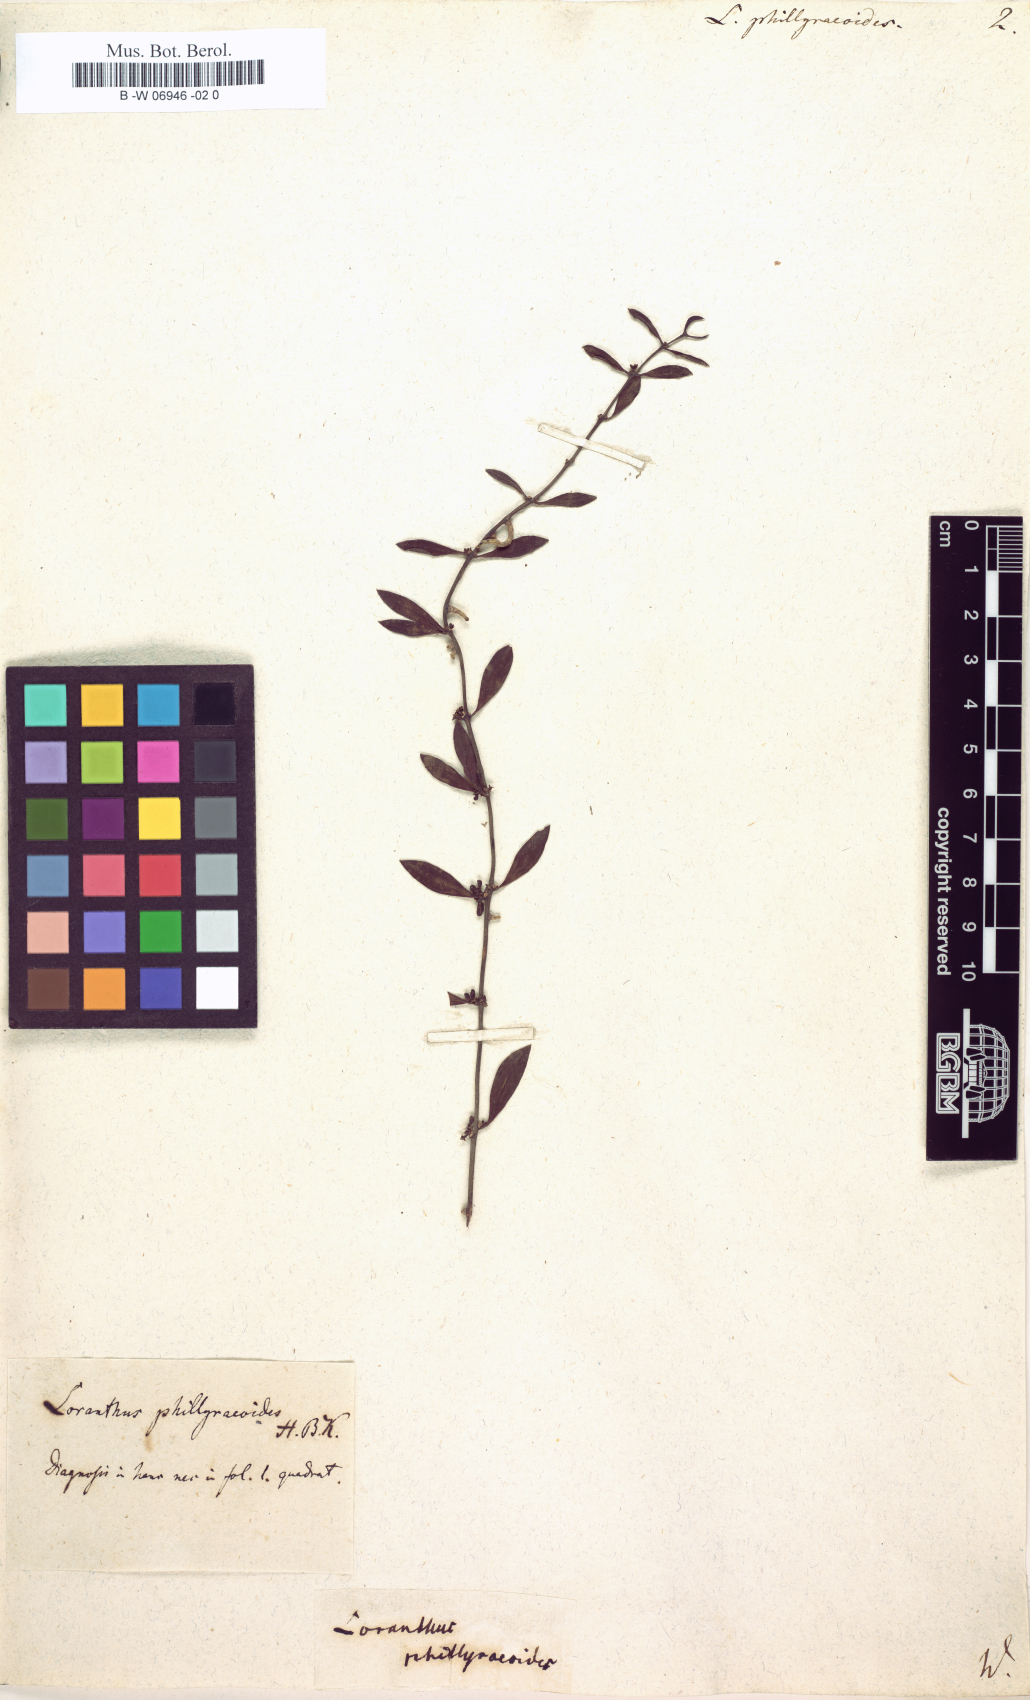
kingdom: Plantae
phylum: Tracheophyta
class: Magnoliopsida
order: Santalales
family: Loranthaceae
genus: Struthanthus
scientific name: Struthanthus phillyreoides
